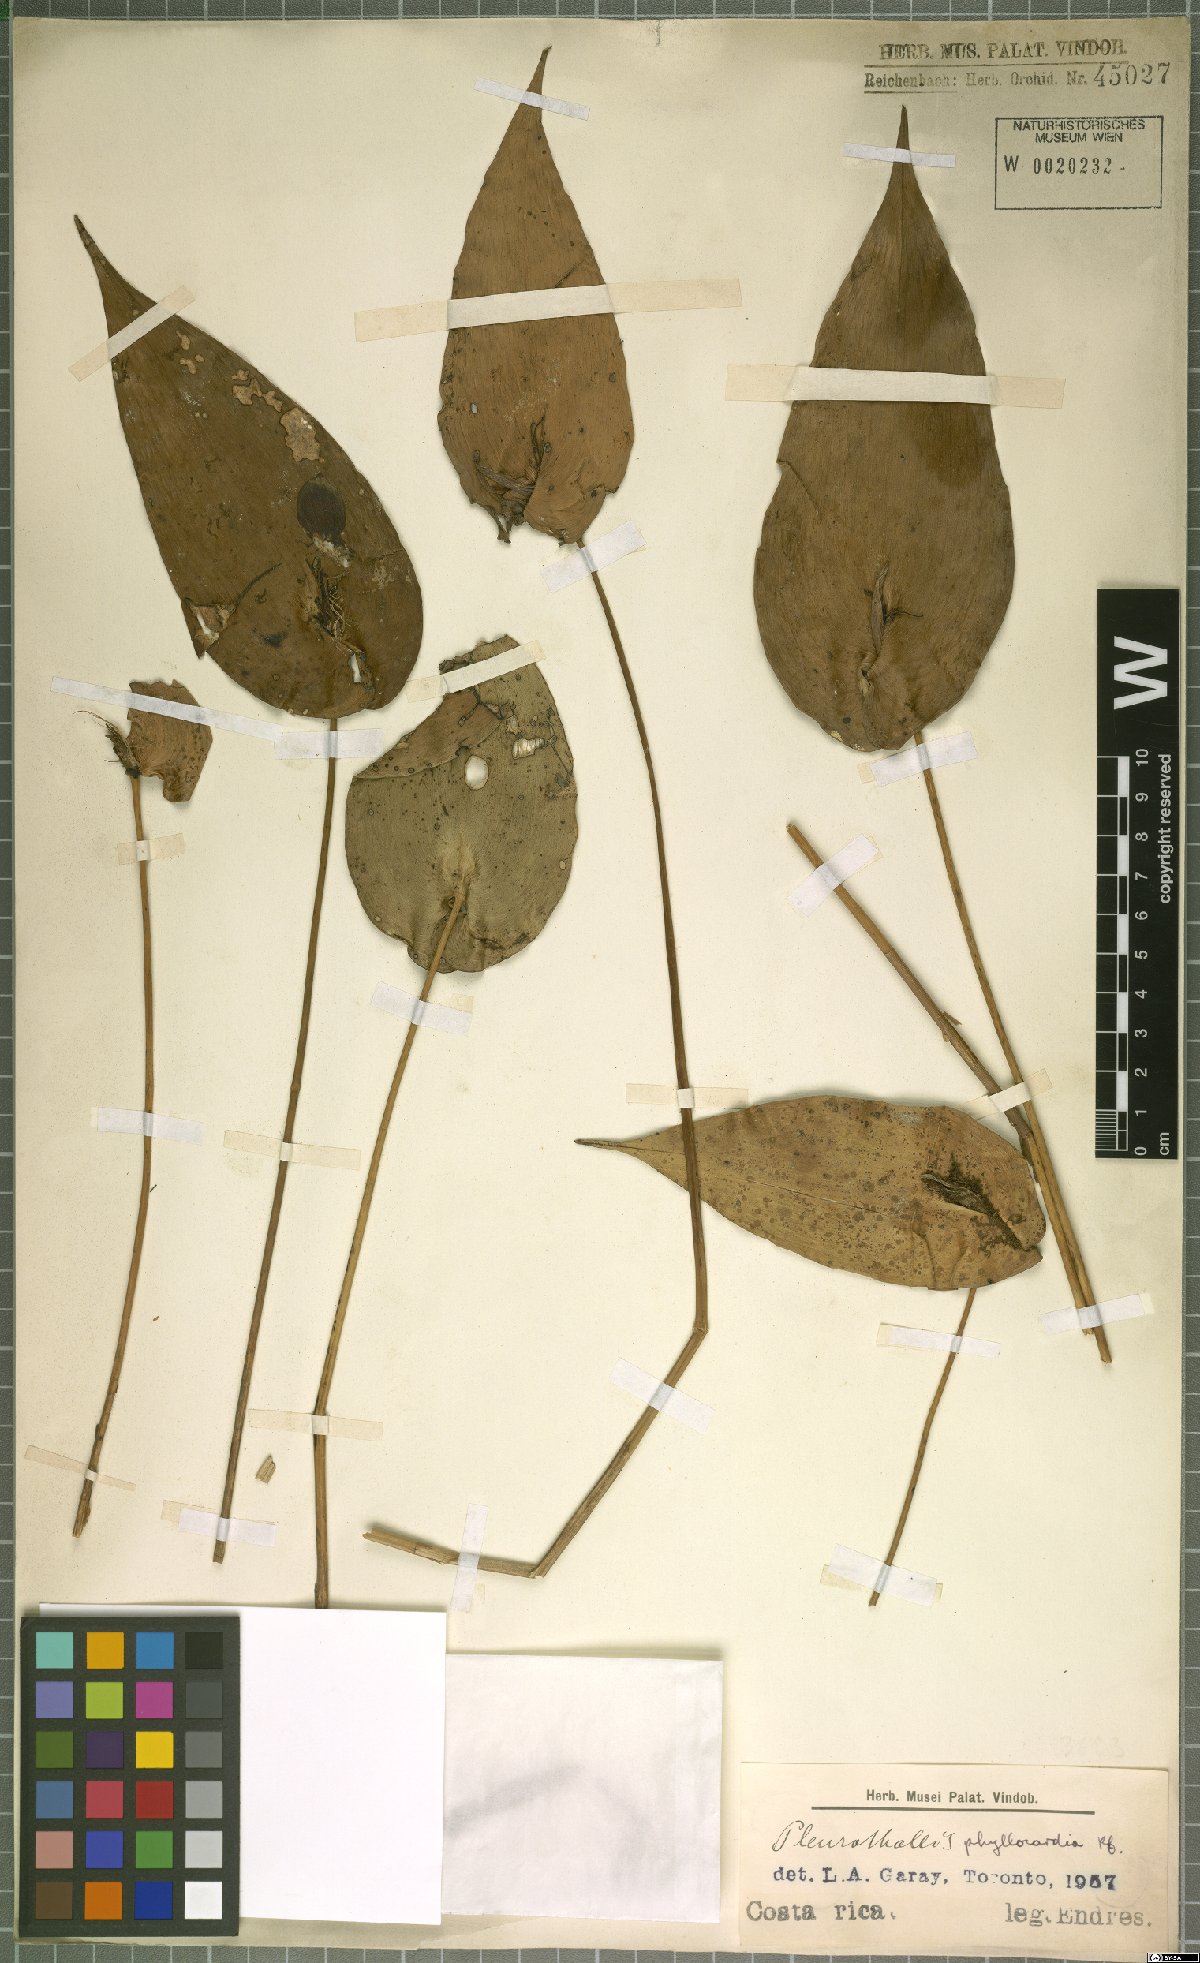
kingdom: Plantae
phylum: Tracheophyta
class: Liliopsida
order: Asparagales
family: Orchidaceae
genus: Pleurothallis
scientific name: Pleurothallis phyllocardia
